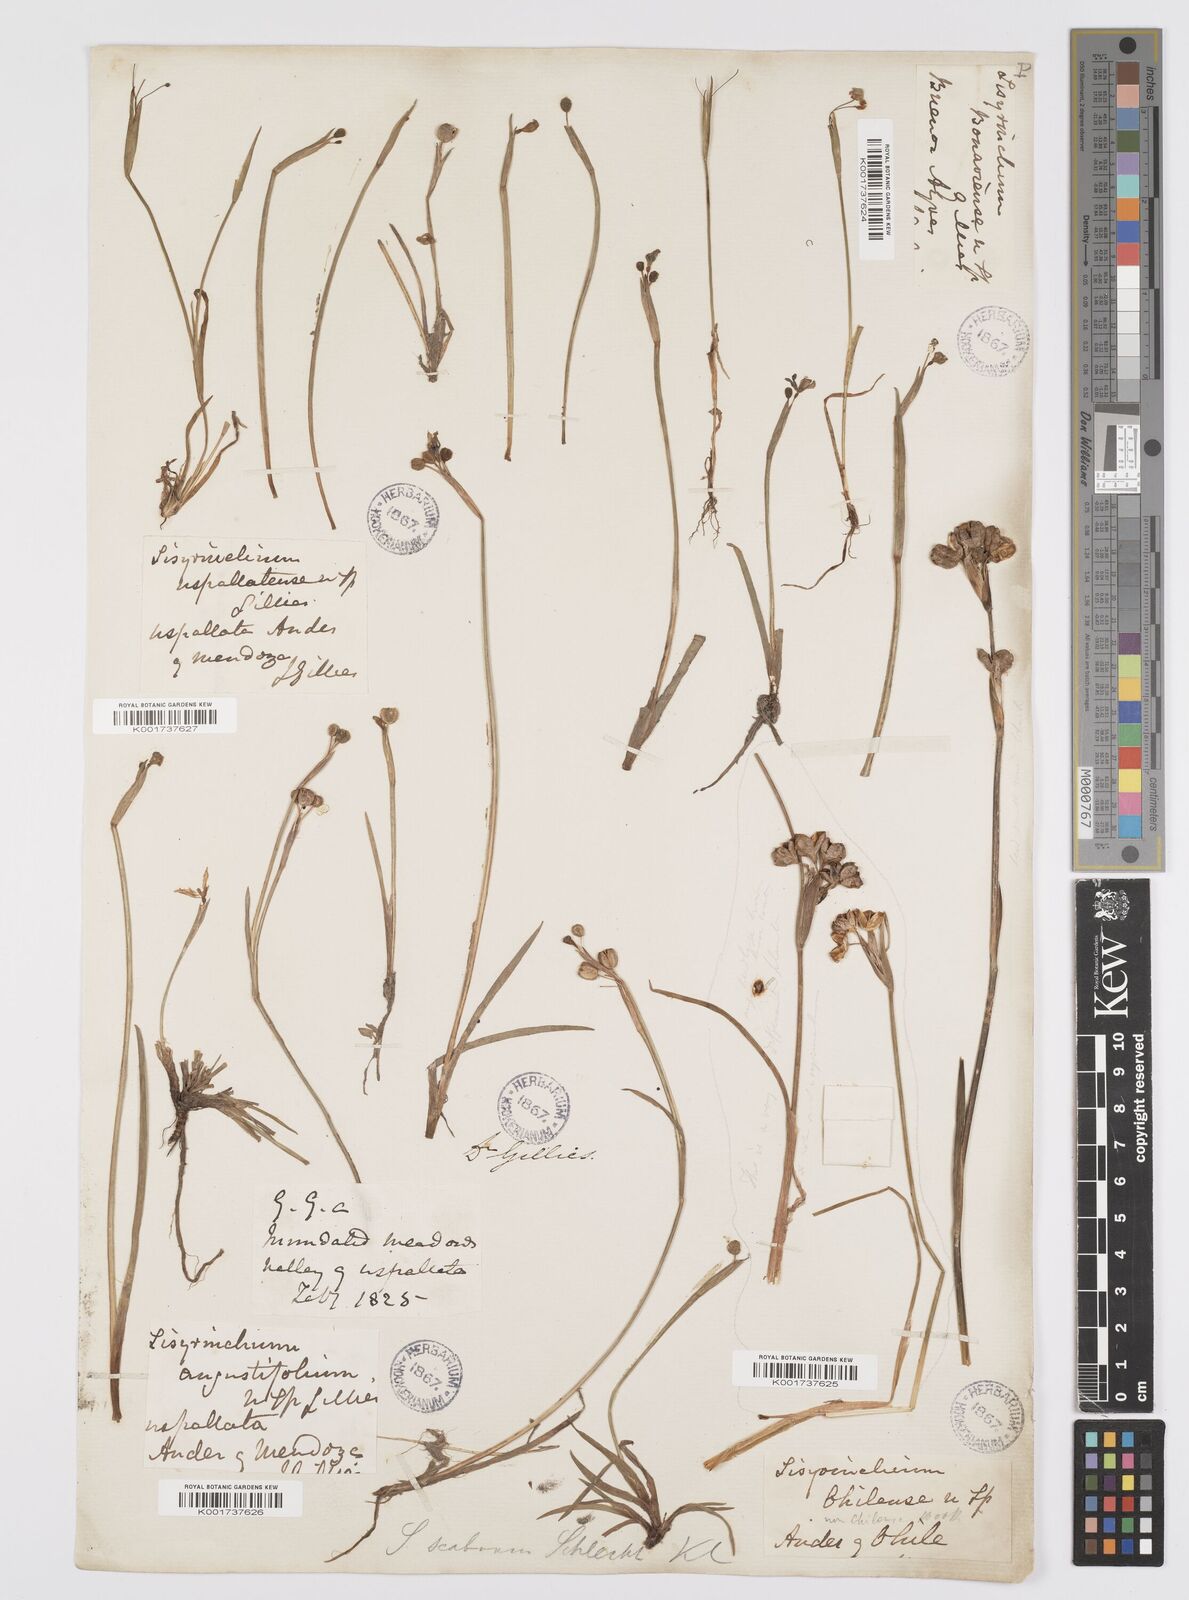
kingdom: Plantae
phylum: Tracheophyta
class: Liliopsida
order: Asparagales
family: Iridaceae
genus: Sisyrinchium
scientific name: Sisyrinchium scabrum
